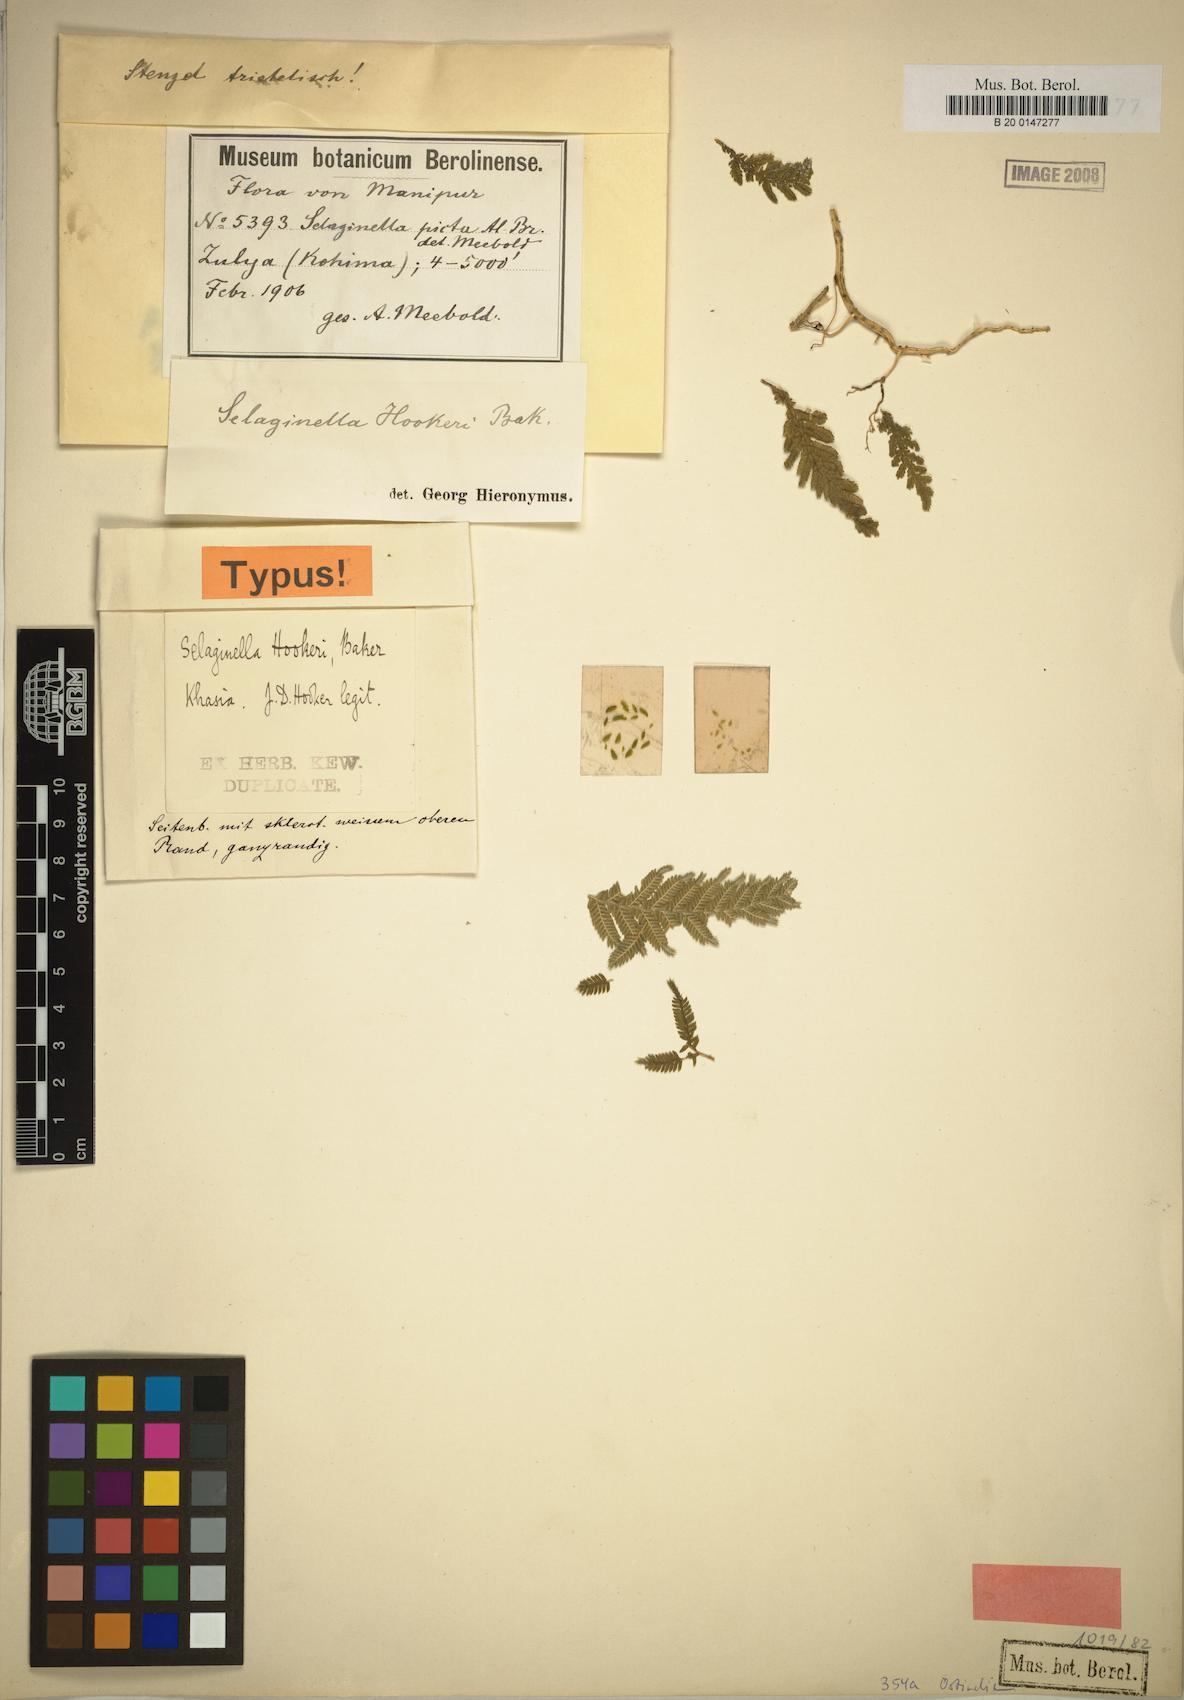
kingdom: Plantae
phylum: Tracheophyta
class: Lycopodiopsida
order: Selaginellales
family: Selaginellaceae
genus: Selaginella
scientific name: Selaginella inaequalifolia
